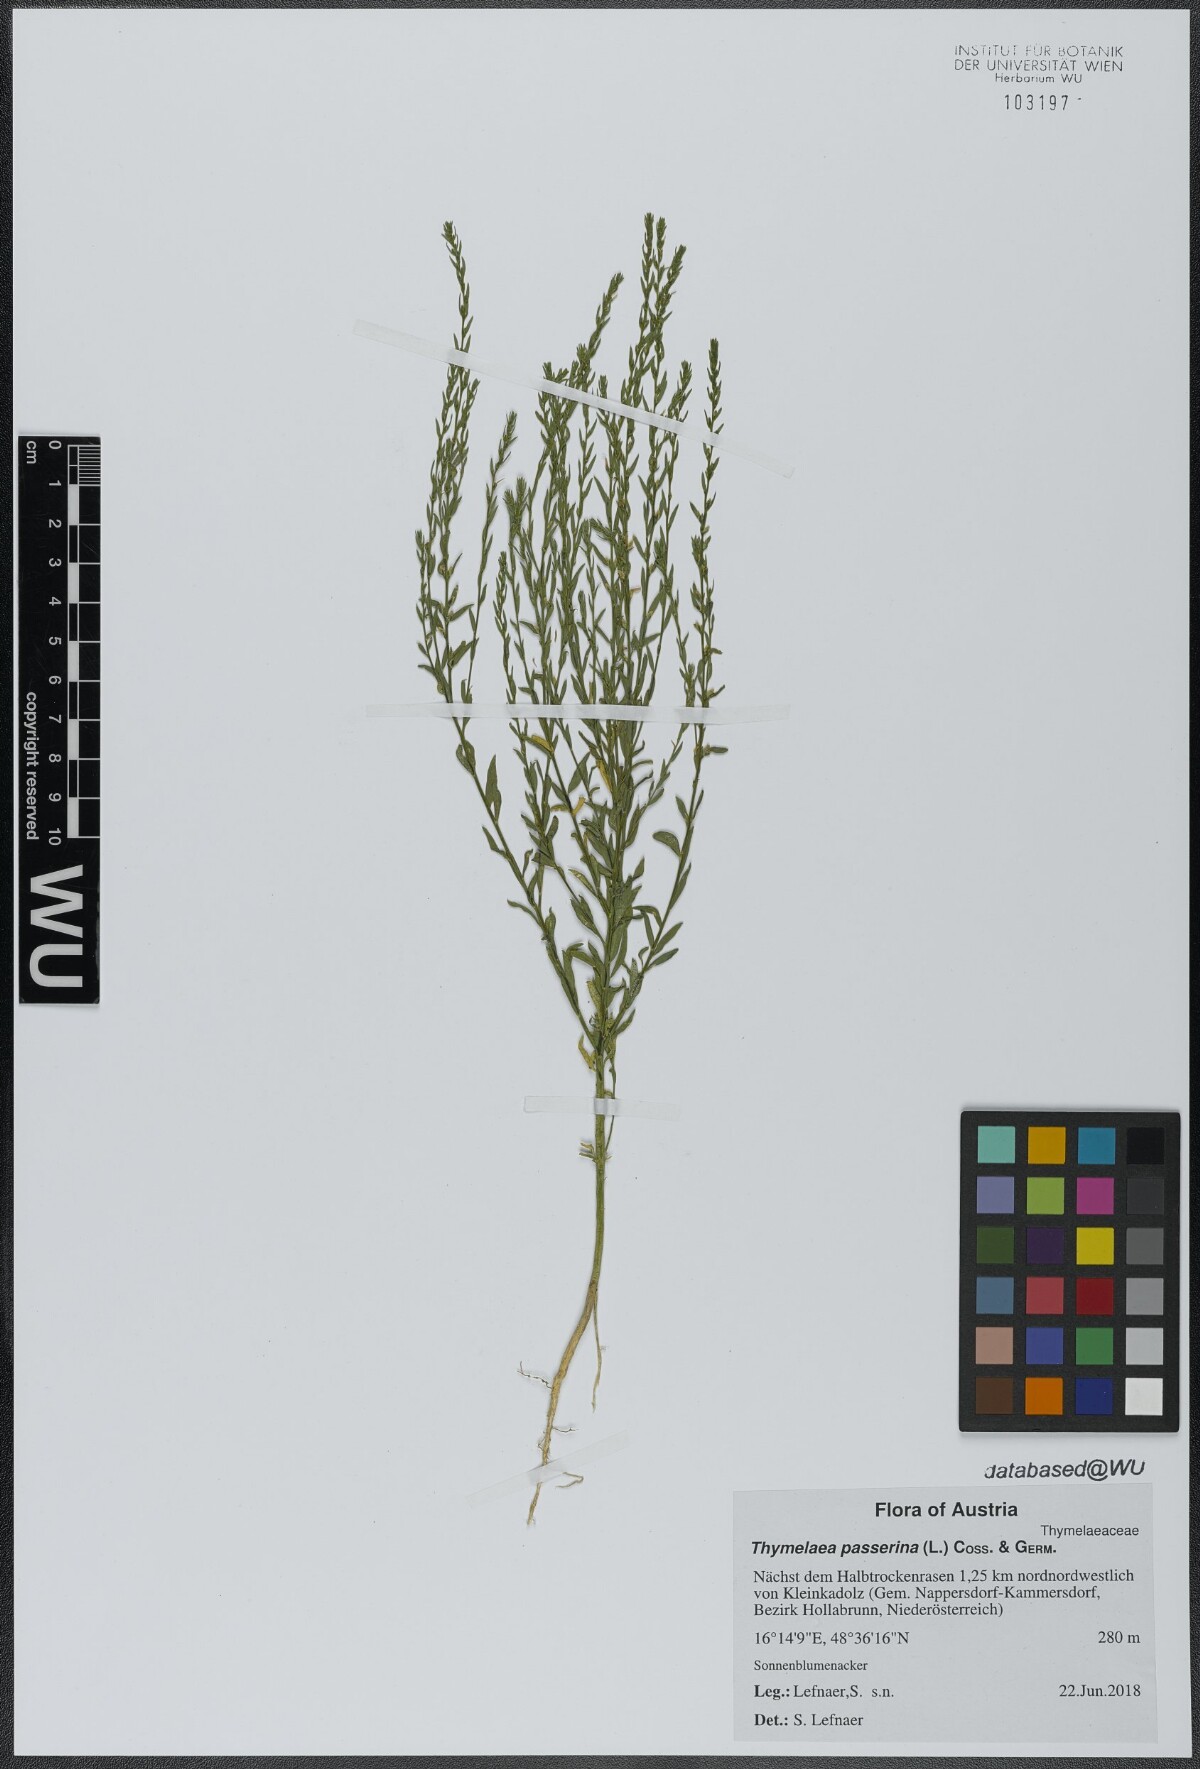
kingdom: Plantae
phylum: Tracheophyta
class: Magnoliopsida
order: Malvales
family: Thymelaeaceae
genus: Thymelaea
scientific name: Thymelaea passerina
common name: Annual thymelaea
